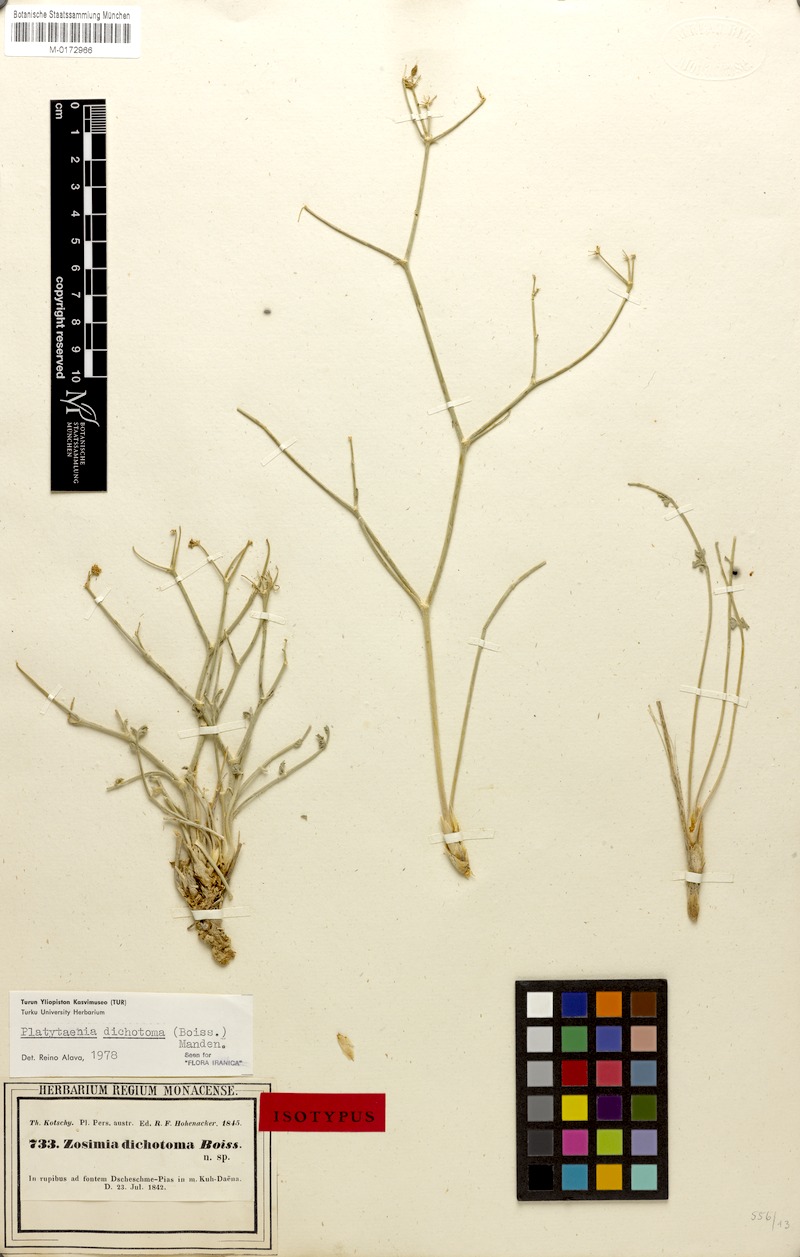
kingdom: Plantae
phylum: Tracheophyta
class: Magnoliopsida
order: Apiales
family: Apiaceae
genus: Semenovia
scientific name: Semenovia dichotoma
